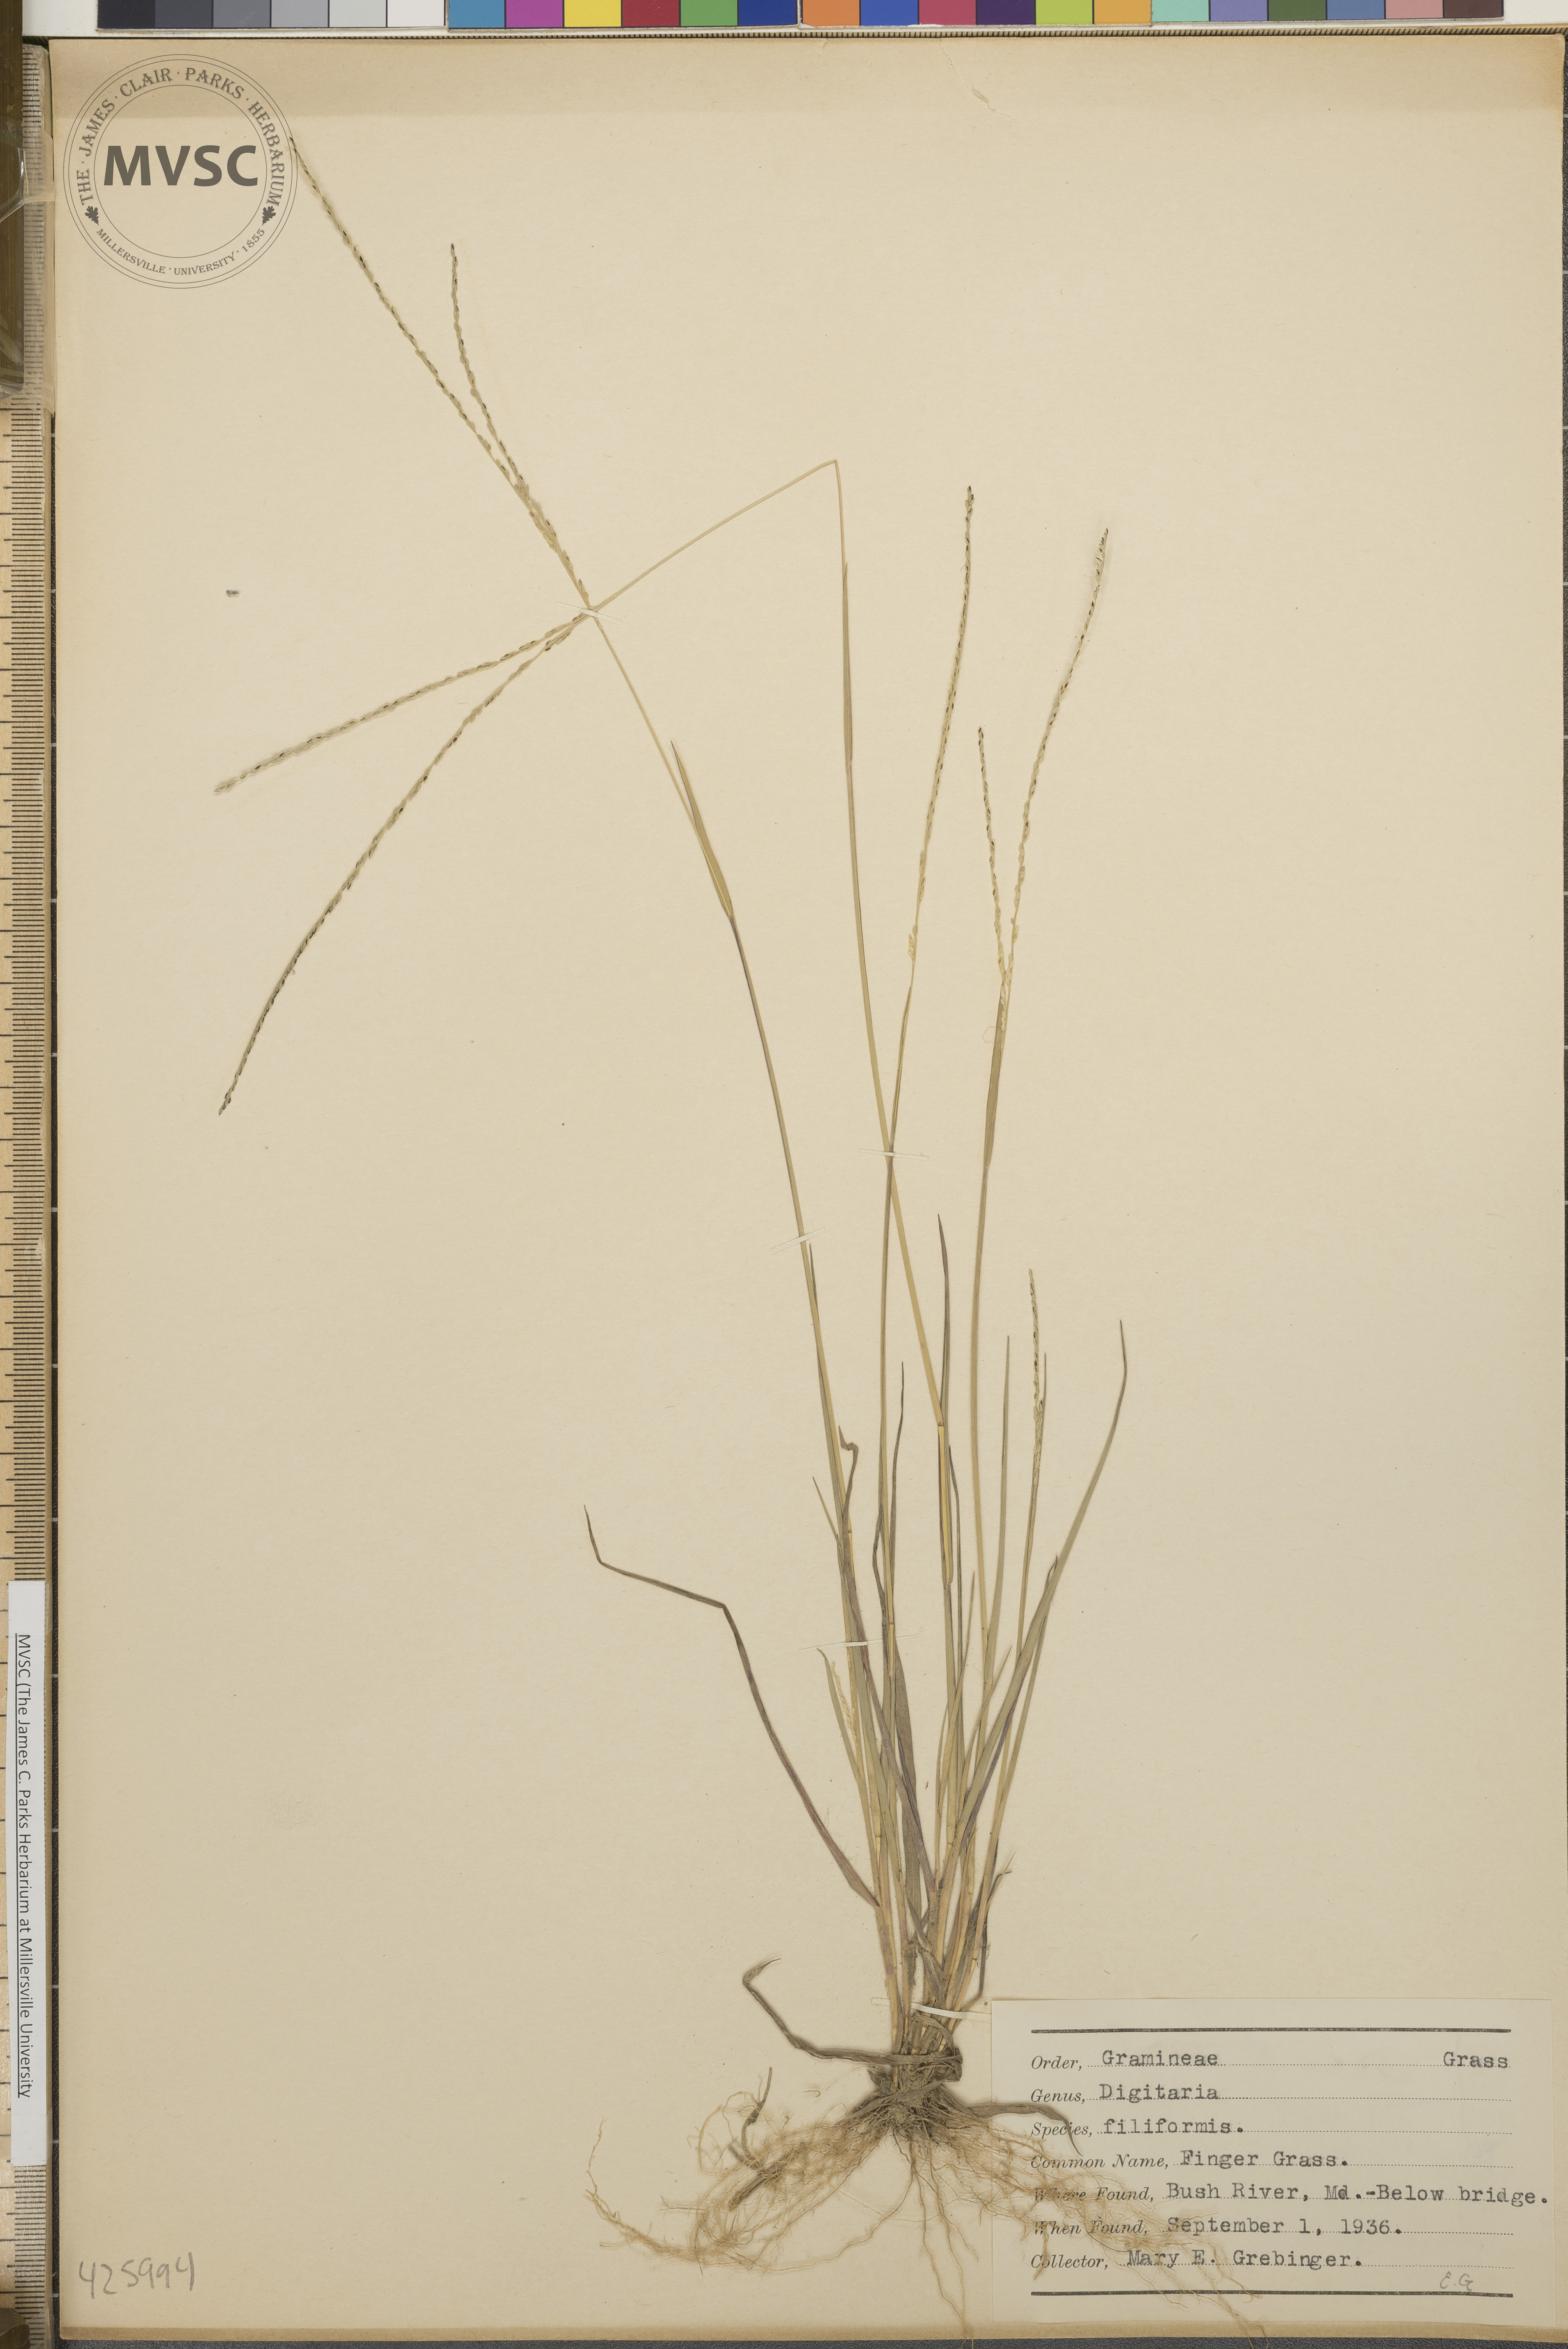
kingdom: Plantae
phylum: Tracheophyta
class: Liliopsida
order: Poales
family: Poaceae
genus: Digitaria
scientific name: Digitaria filiformis
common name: Finger Grass
